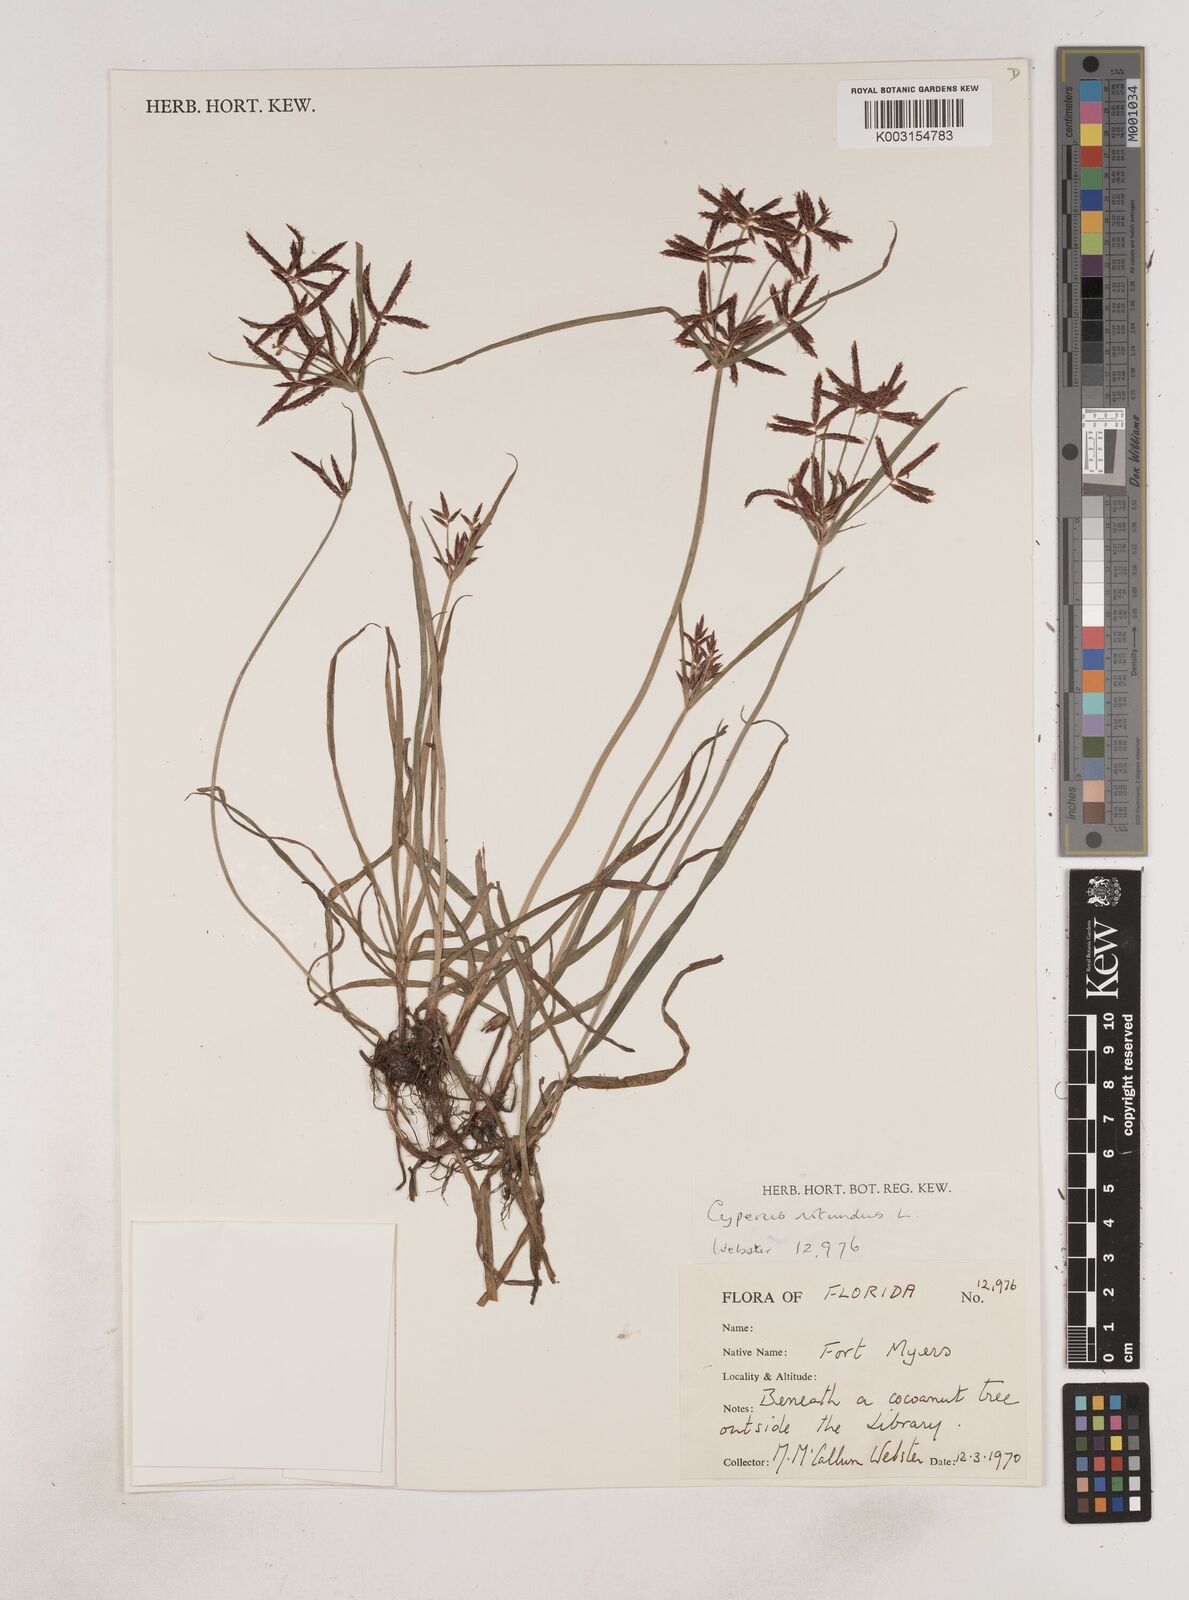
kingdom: Plantae
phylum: Tracheophyta
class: Liliopsida
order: Poales
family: Cyperaceae
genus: Cyperus
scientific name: Cyperus rotundus
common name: Nutgrass
